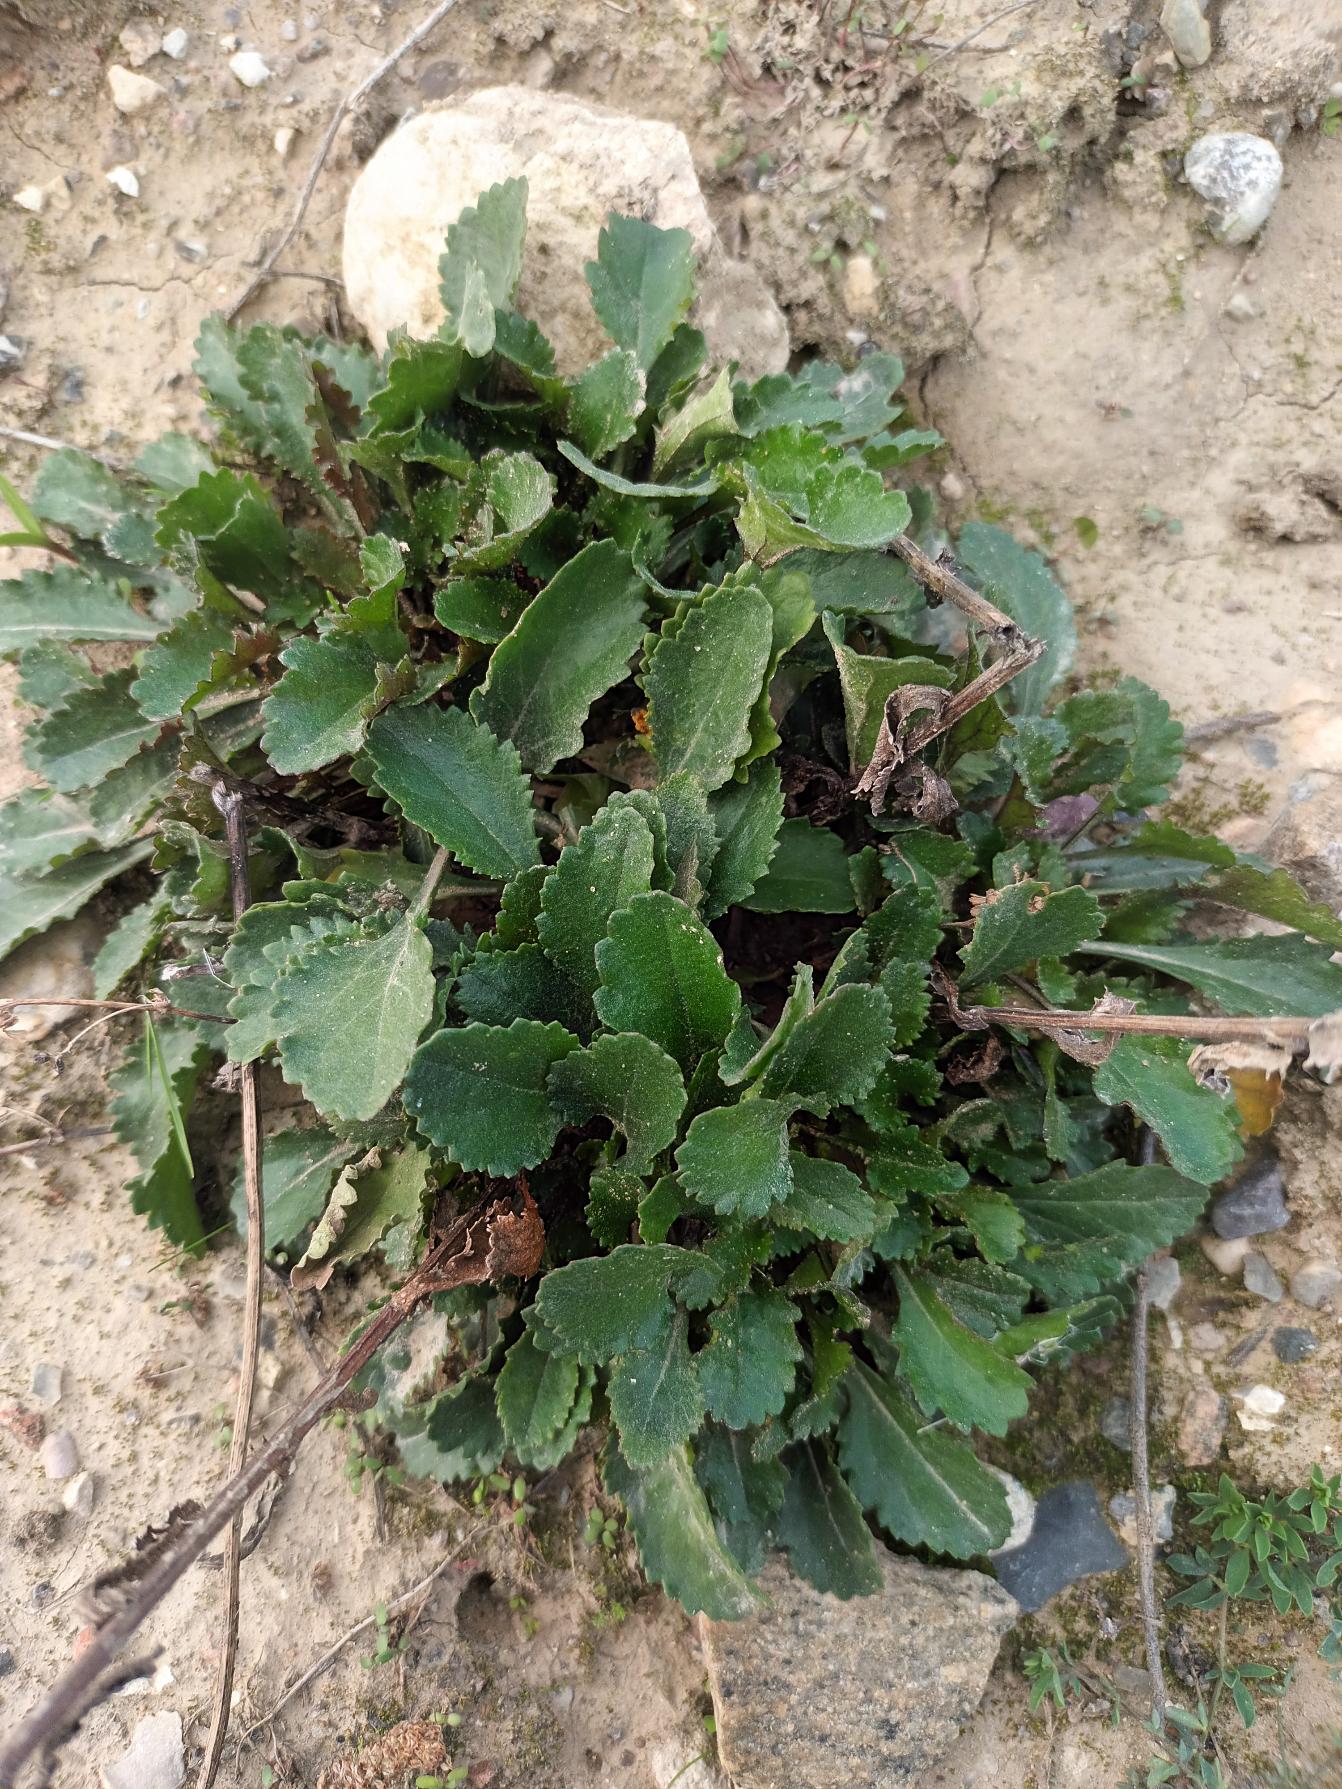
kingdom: Plantae
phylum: Tracheophyta
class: Magnoliopsida
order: Asterales
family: Asteraceae
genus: Leucanthemum
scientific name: Leucanthemum vulgare
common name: Hvid okseøje
